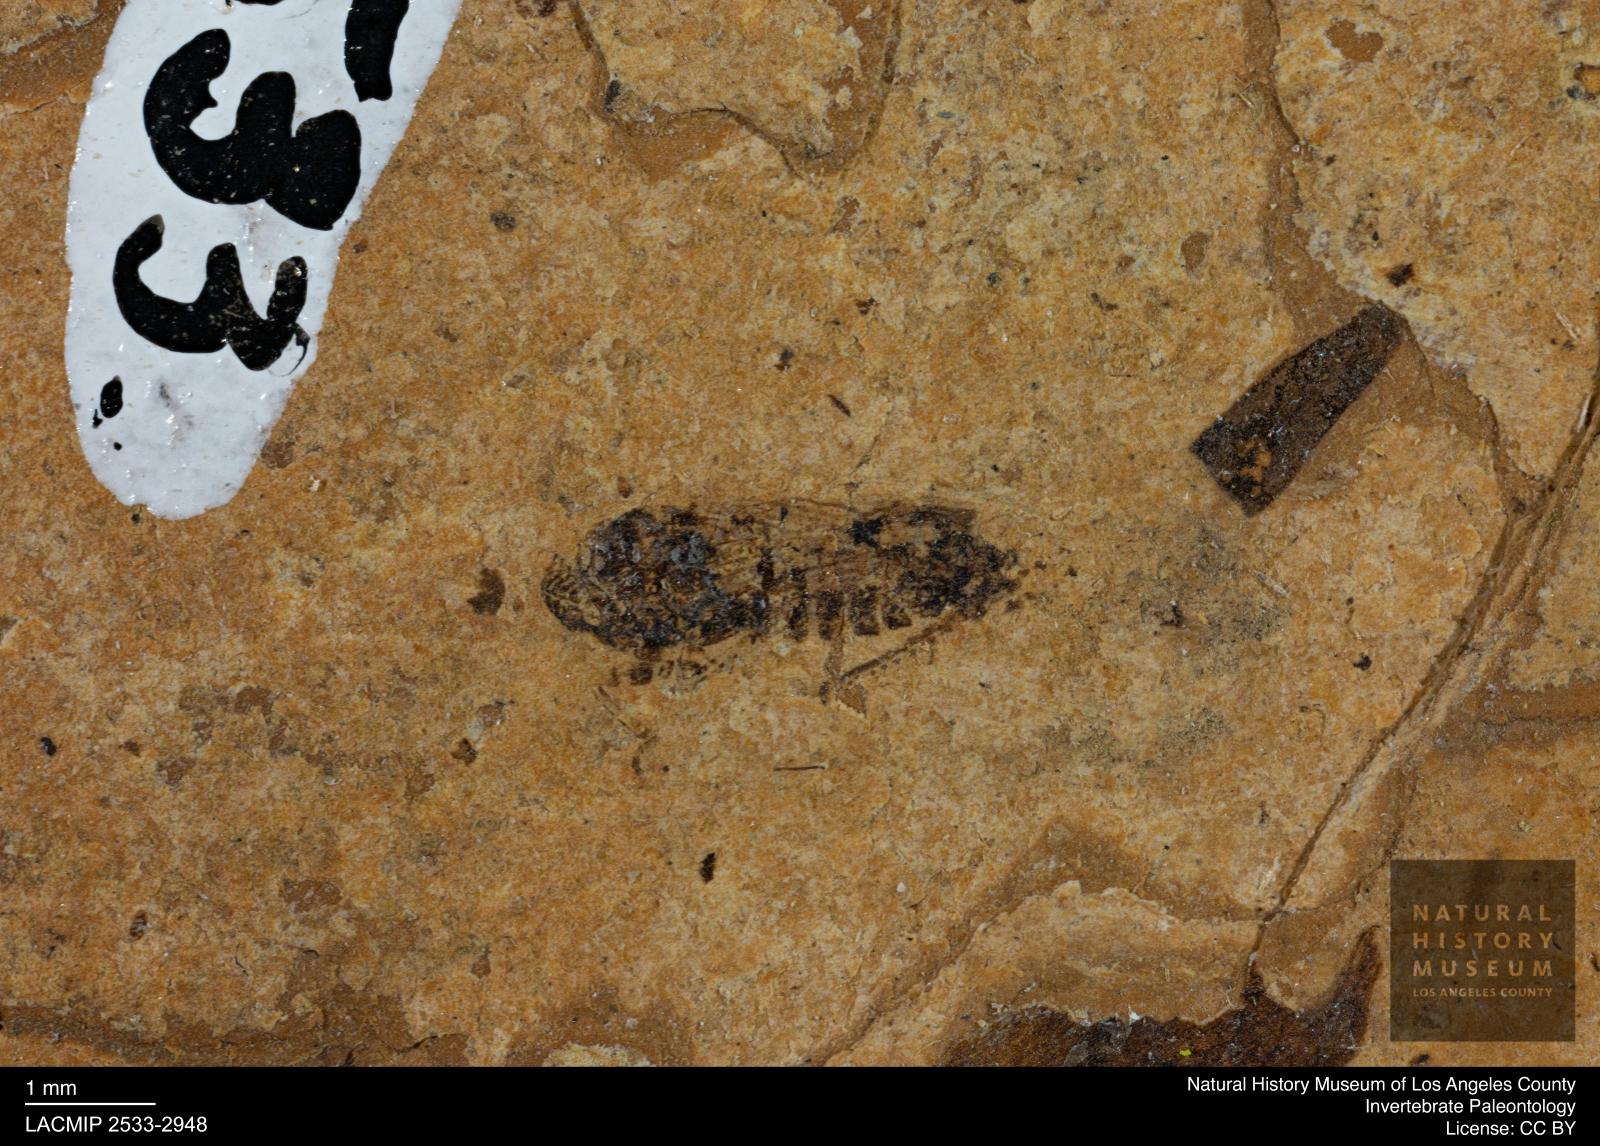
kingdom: Animalia
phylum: Arthropoda
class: Insecta
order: Hemiptera
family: Cicadellidae
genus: Thamnotettix
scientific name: Thamnotettix
